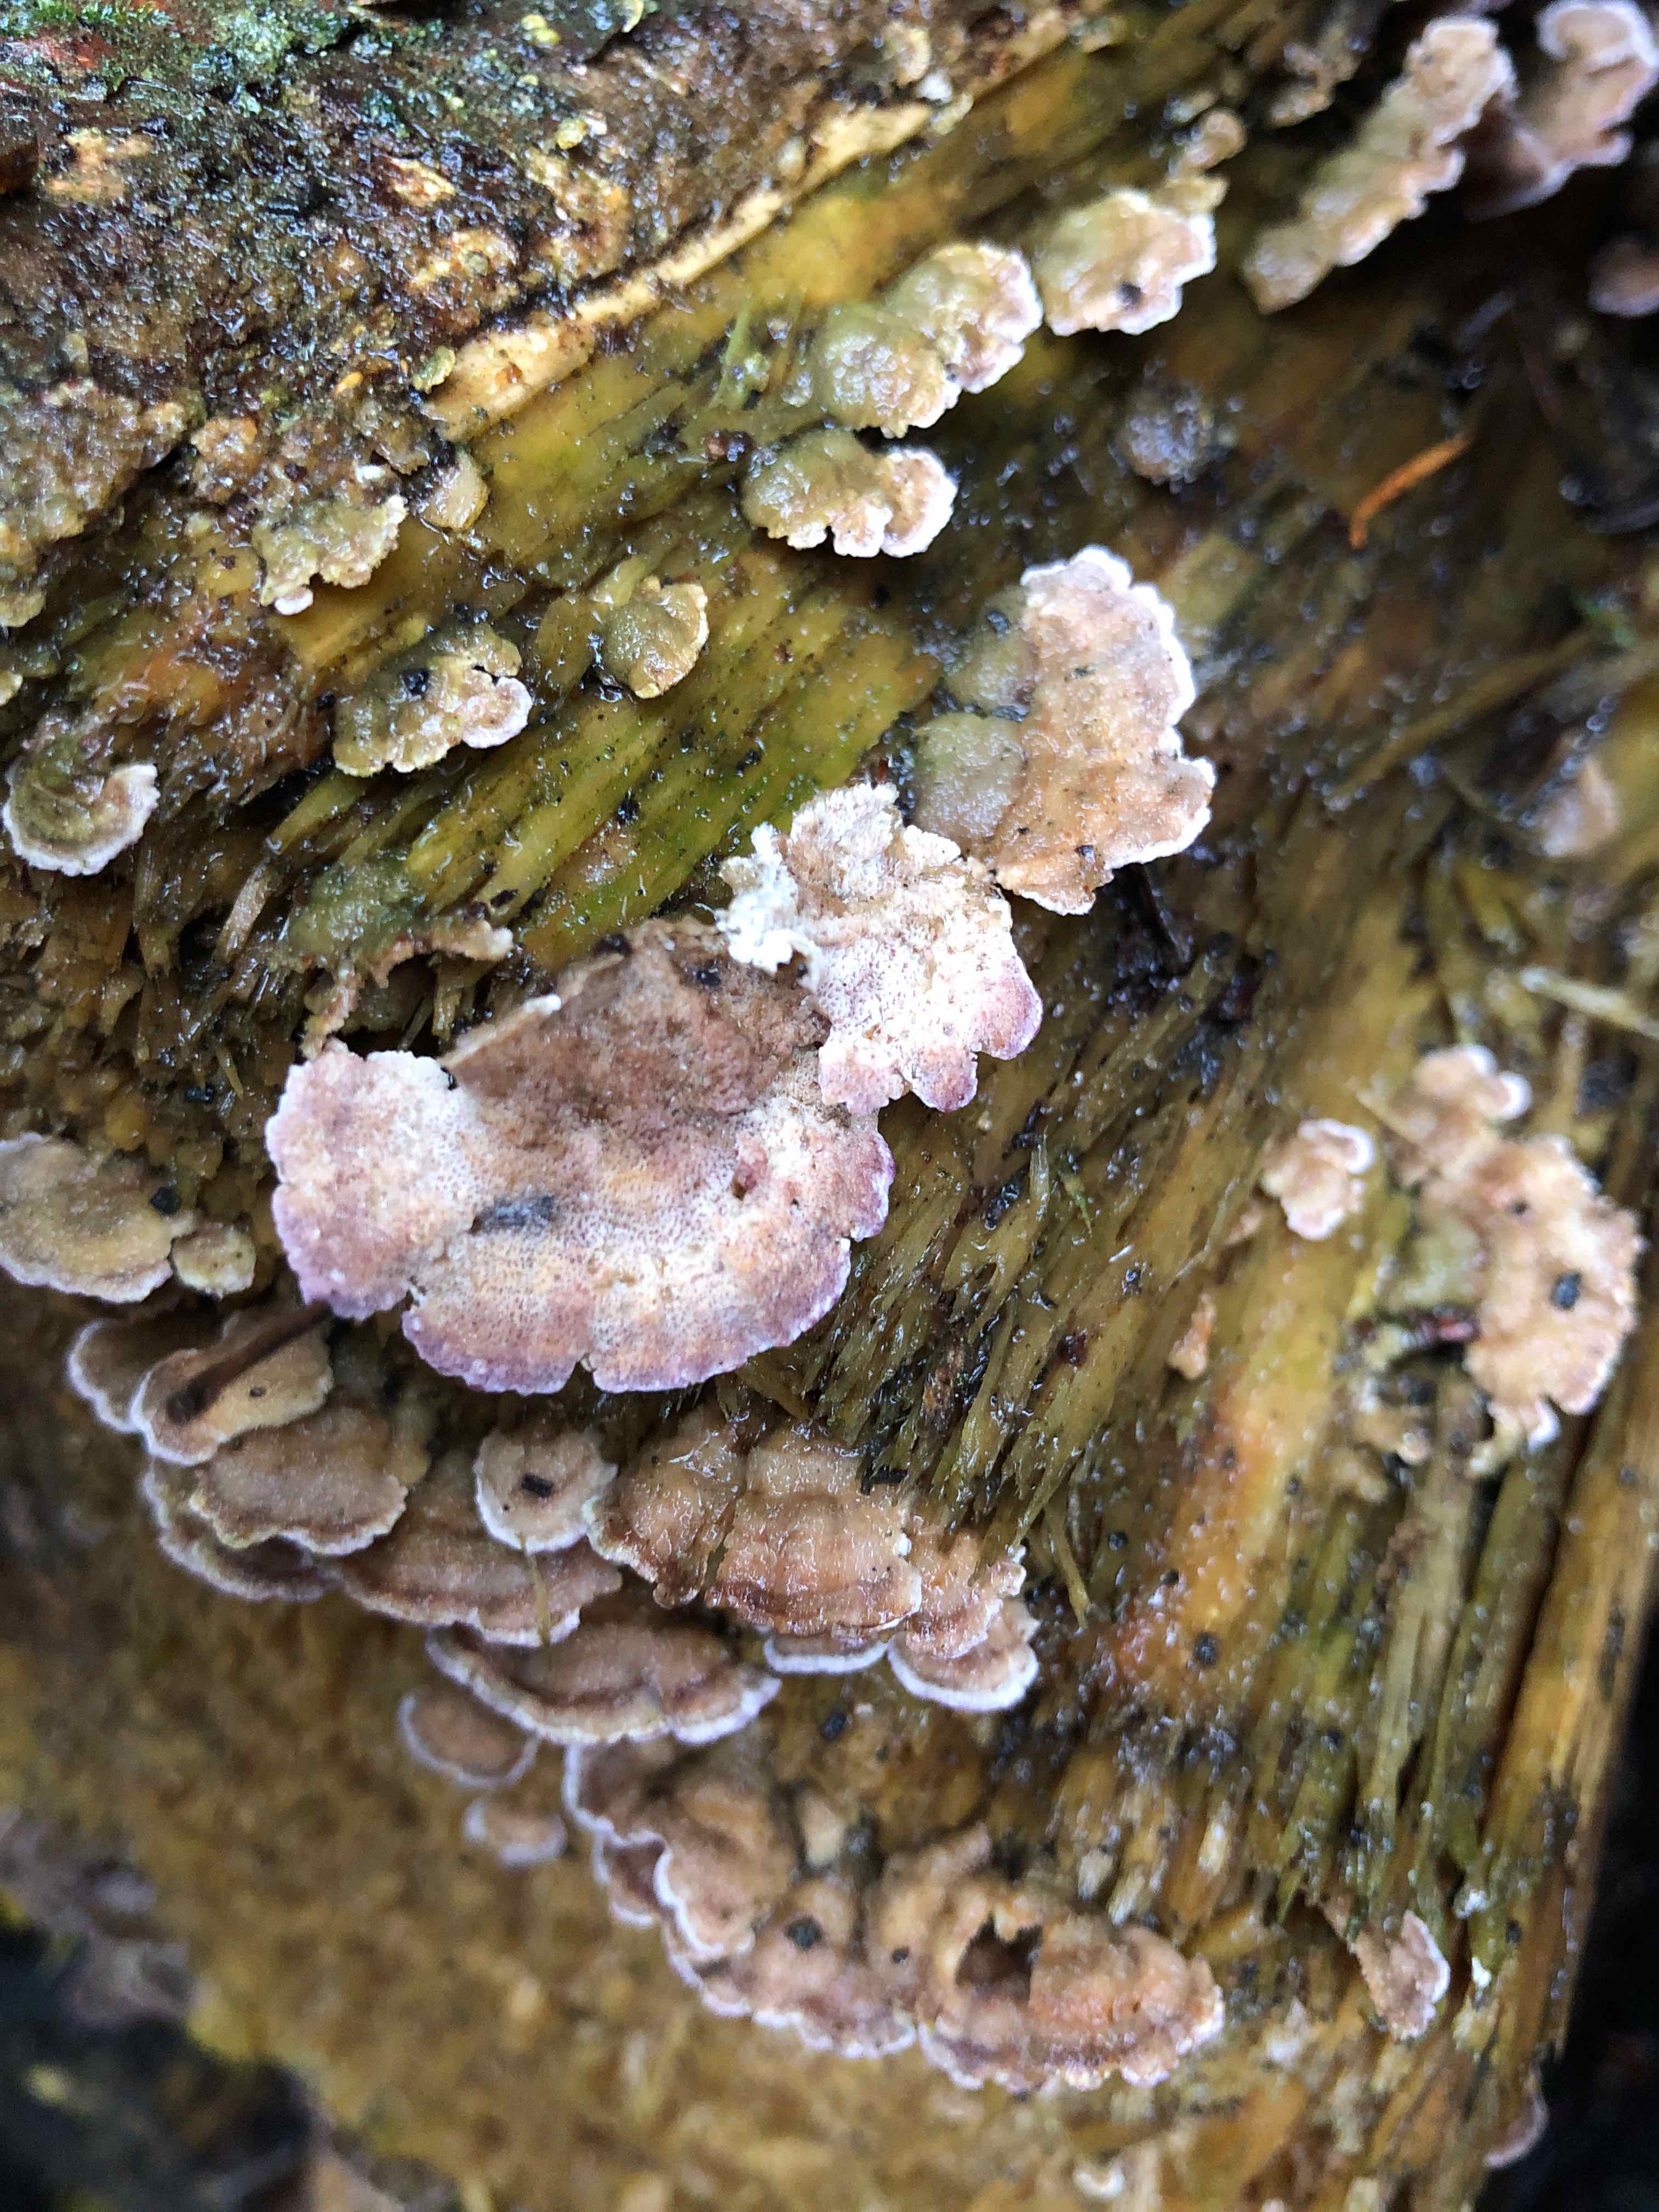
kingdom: Fungi
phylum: Basidiomycota
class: Agaricomycetes
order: Hymenochaetales
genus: Trichaptum
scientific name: Trichaptum abietinum
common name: almindelig violporesvamp
